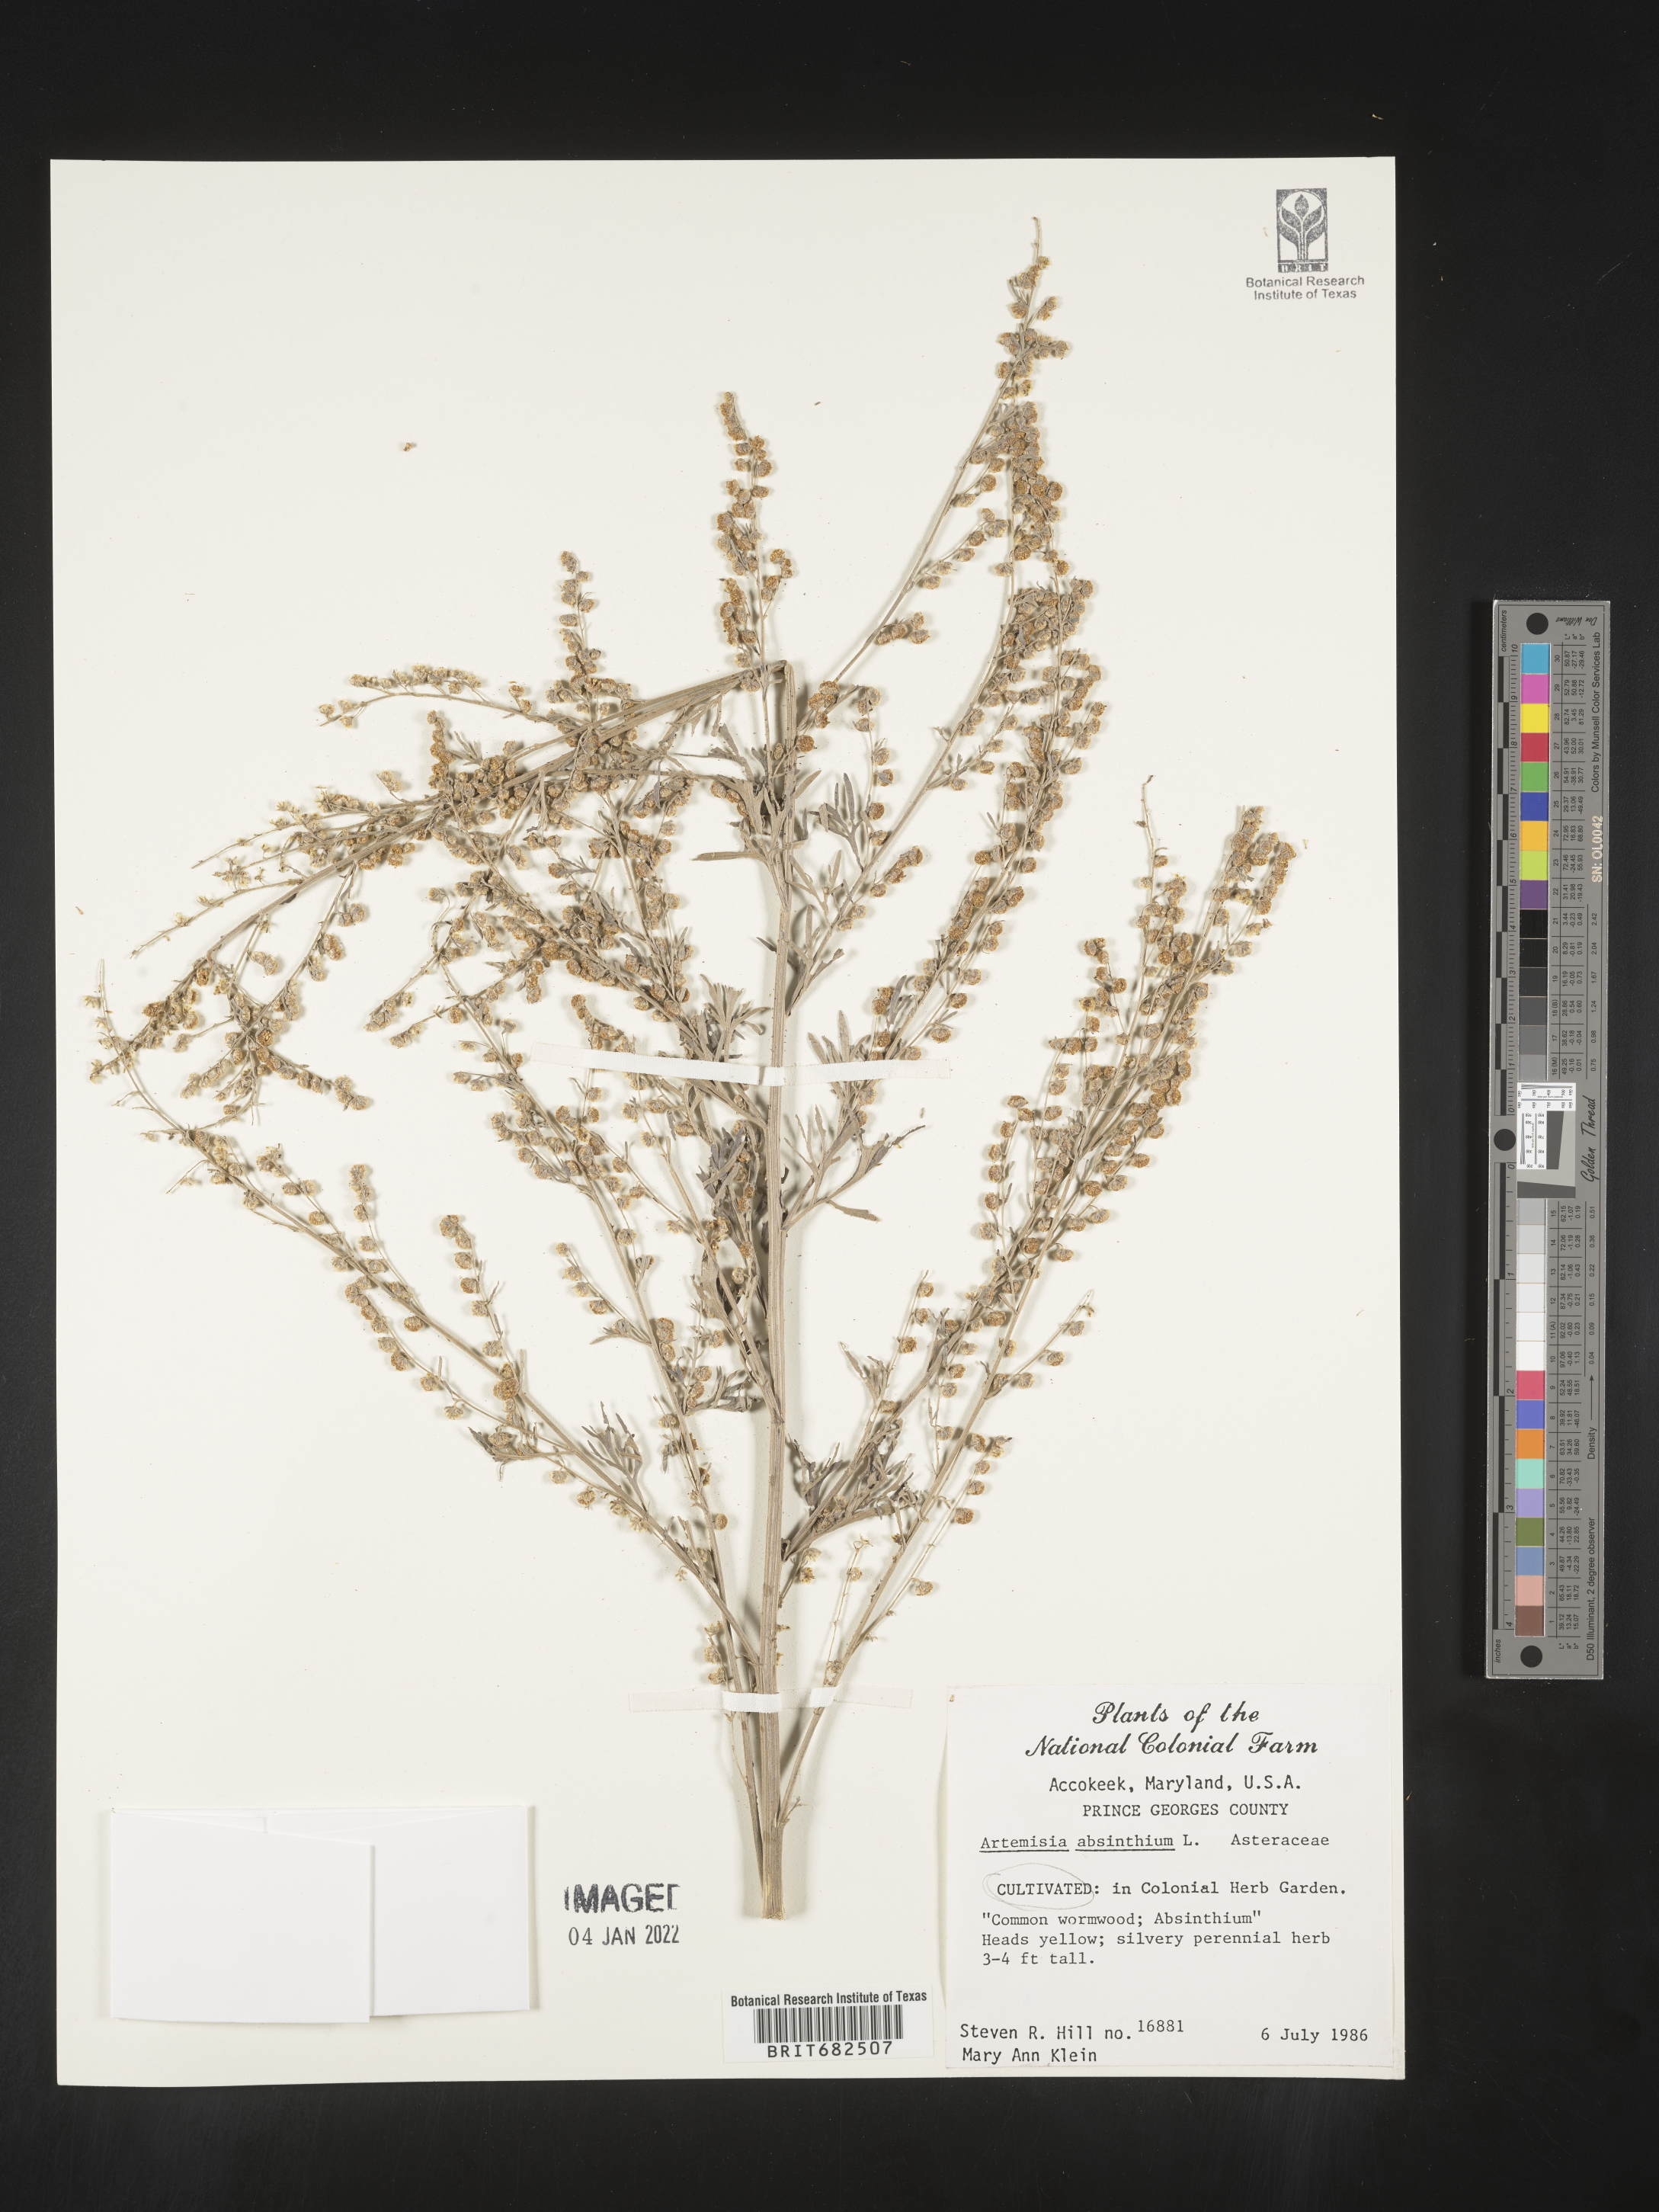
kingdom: Plantae
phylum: Tracheophyta
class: Magnoliopsida
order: Asterales
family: Asteraceae
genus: Artemisia
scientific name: Artemisia
